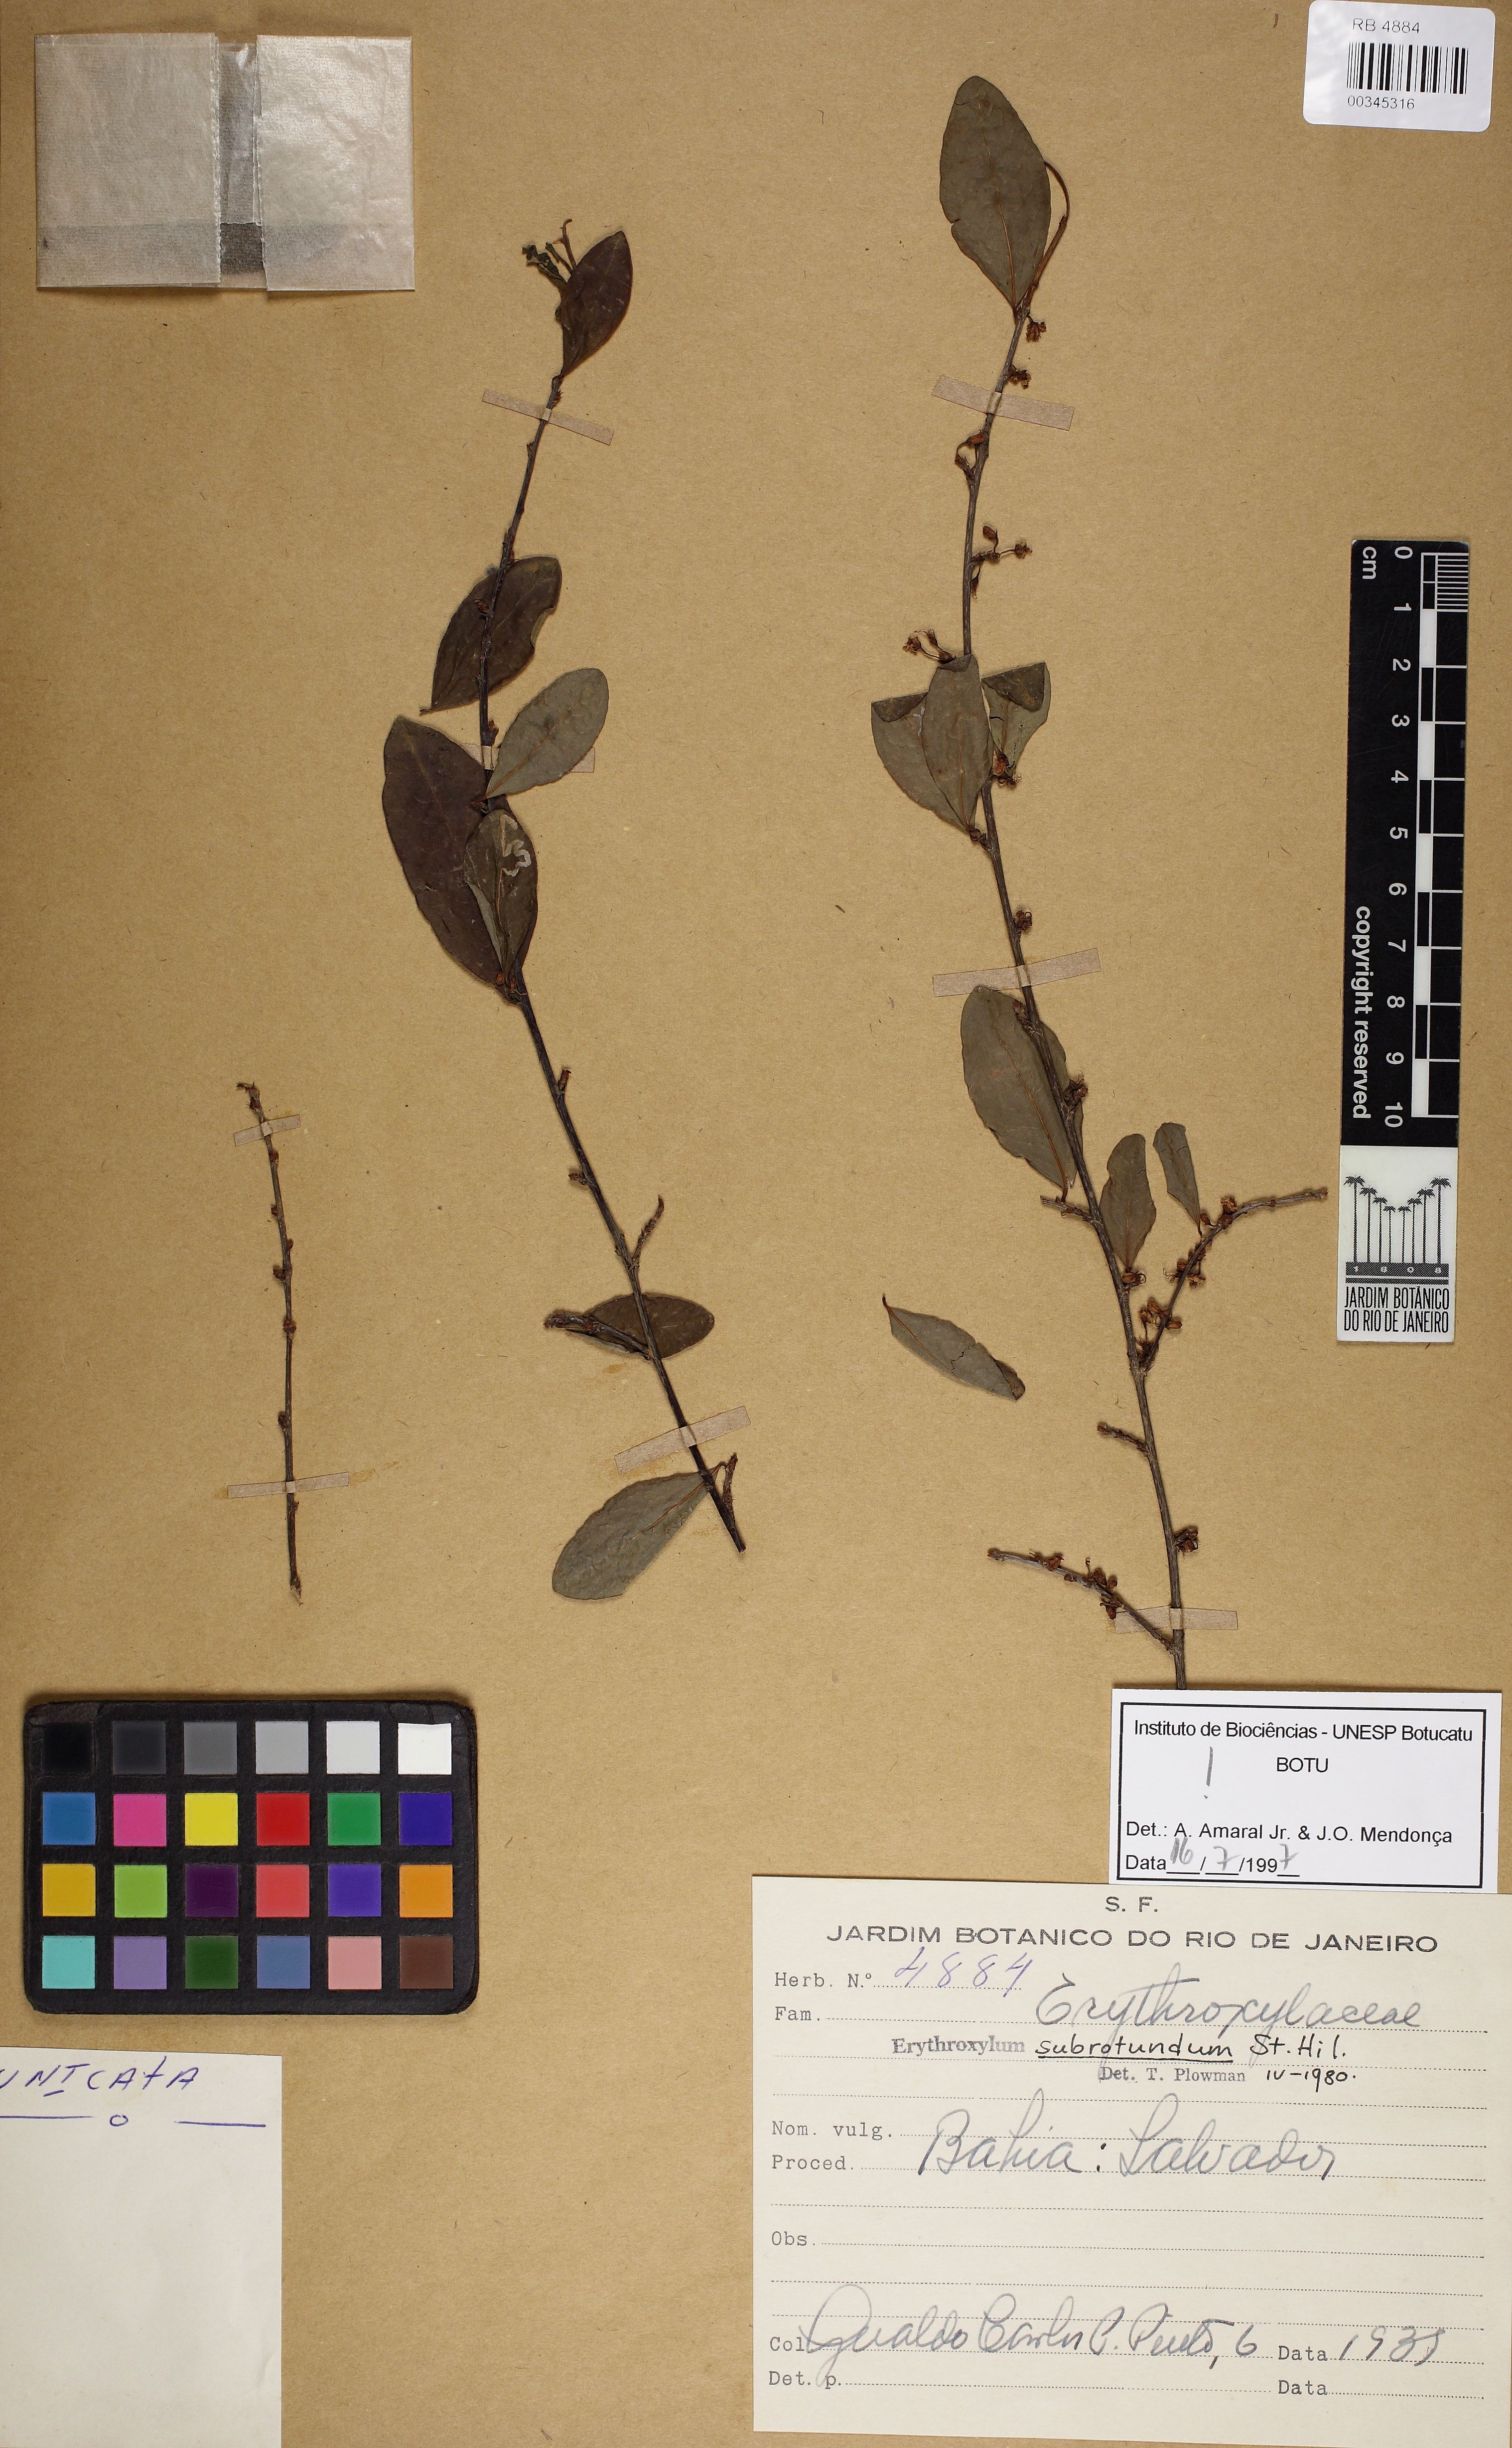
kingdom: Plantae
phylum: Tracheophyta
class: Magnoliopsida
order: Caryophyllales
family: Polygonaceae
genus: Coccoloba
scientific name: Coccoloba subcordata
